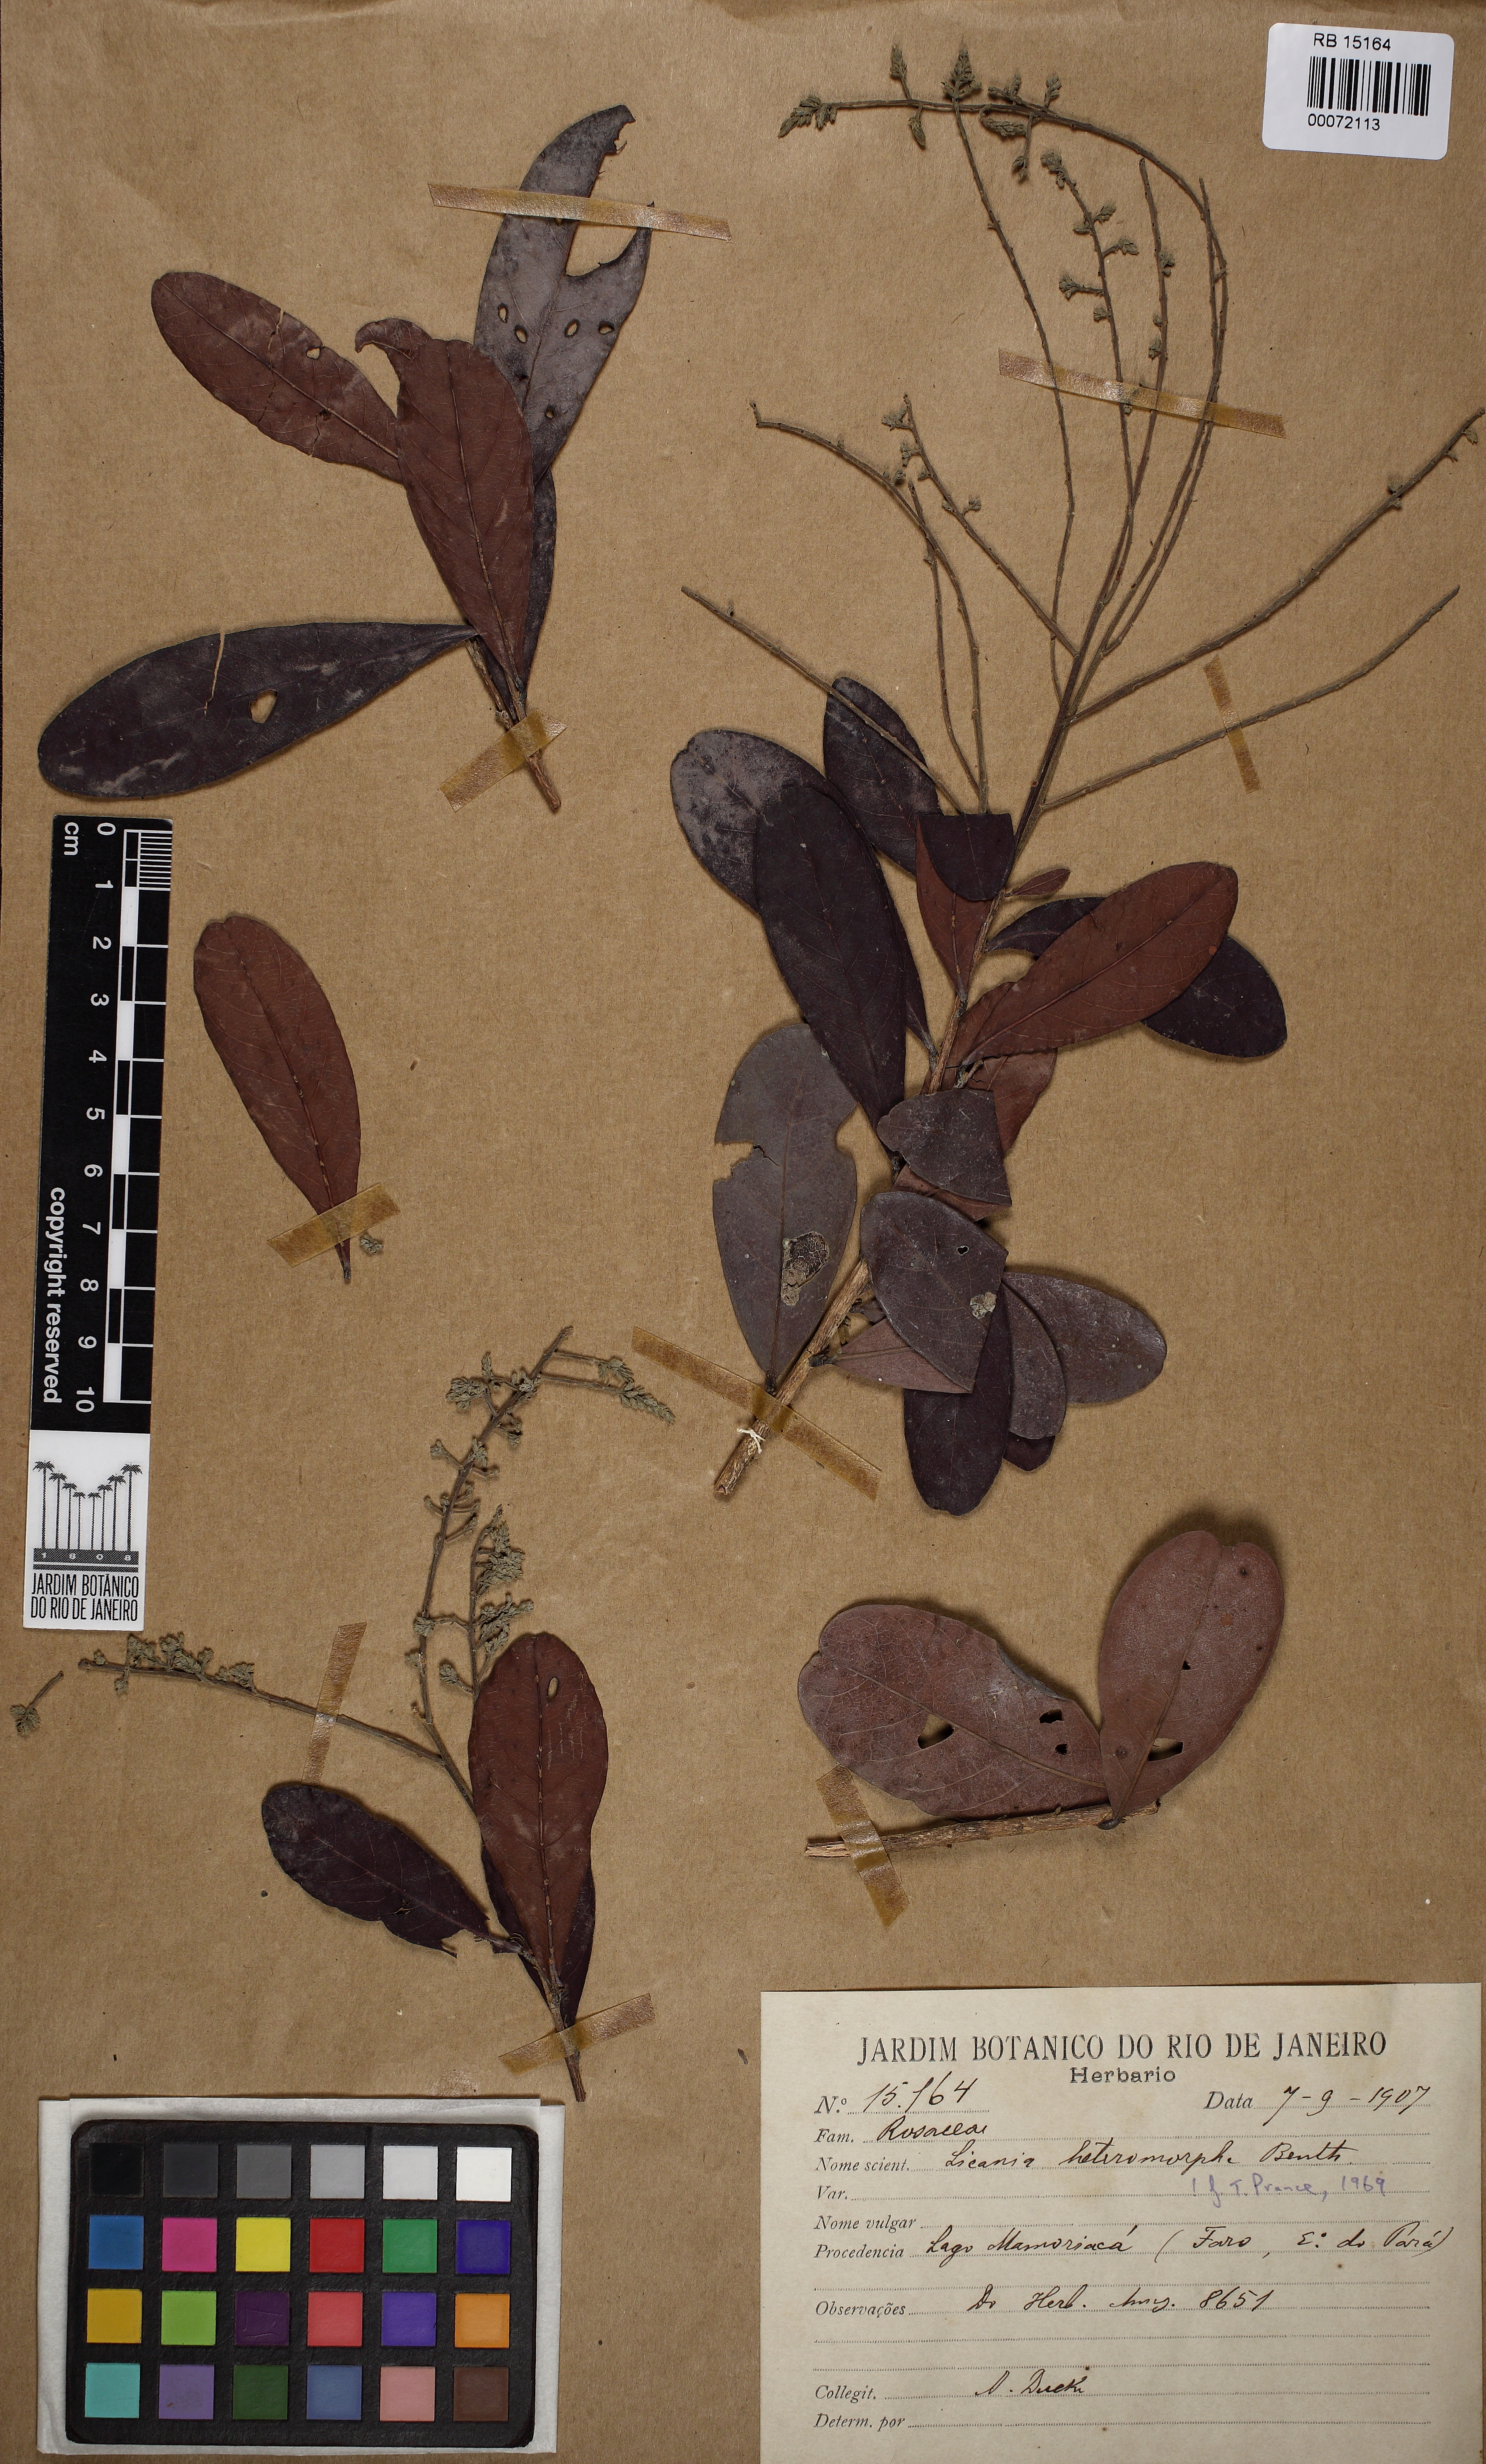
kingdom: Plantae
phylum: Tracheophyta
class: Magnoliopsida
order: Malpighiales
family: Chrysobalanaceae
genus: Hymenopus
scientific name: Hymenopus heteromorphus
